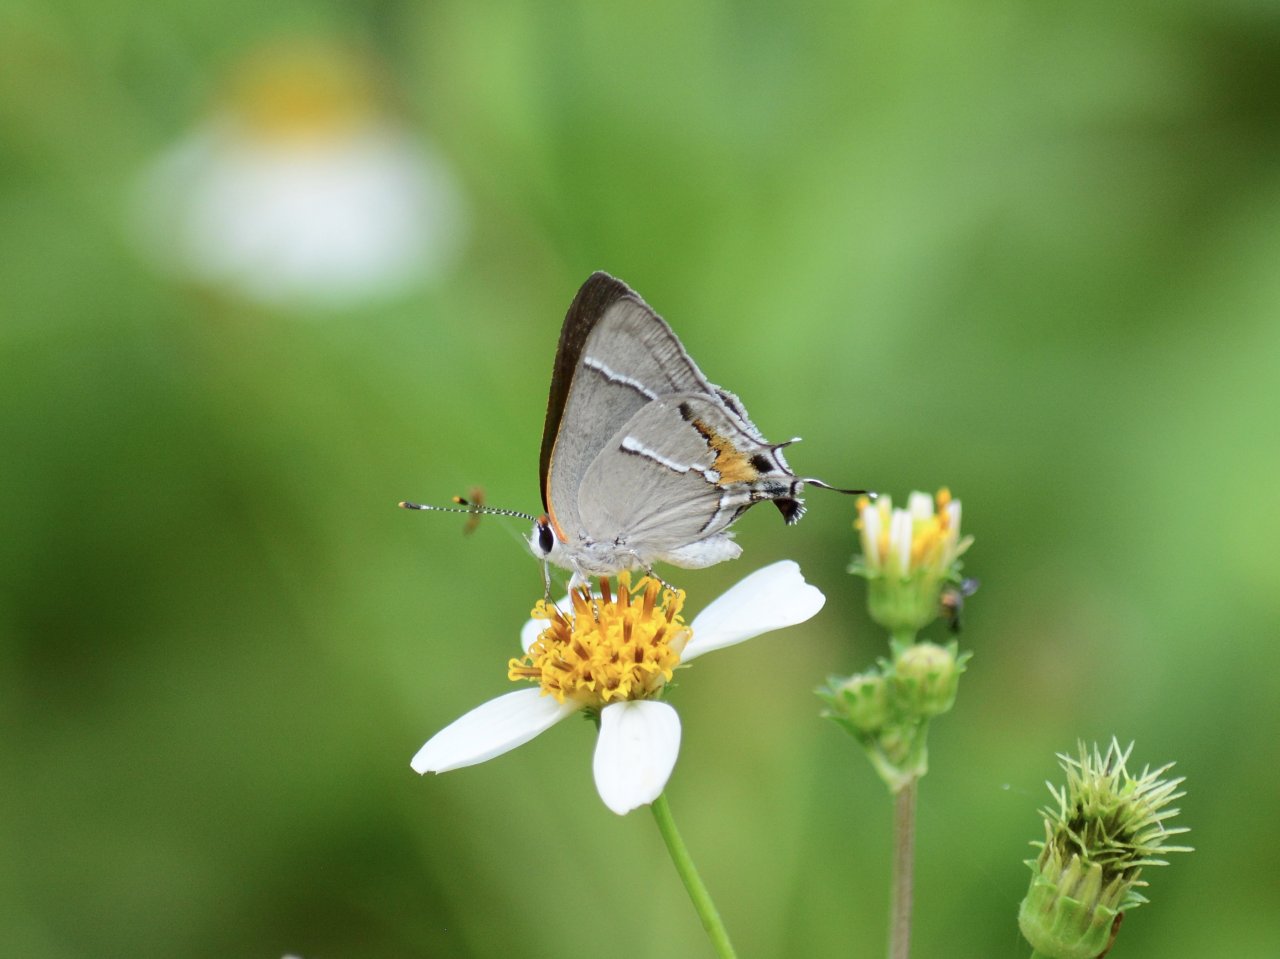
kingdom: Animalia
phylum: Arthropoda
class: Insecta
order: Lepidoptera
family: Lycaenidae
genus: Thecla
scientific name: Thecla martialis
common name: Martial Scrub-Hairstreak
